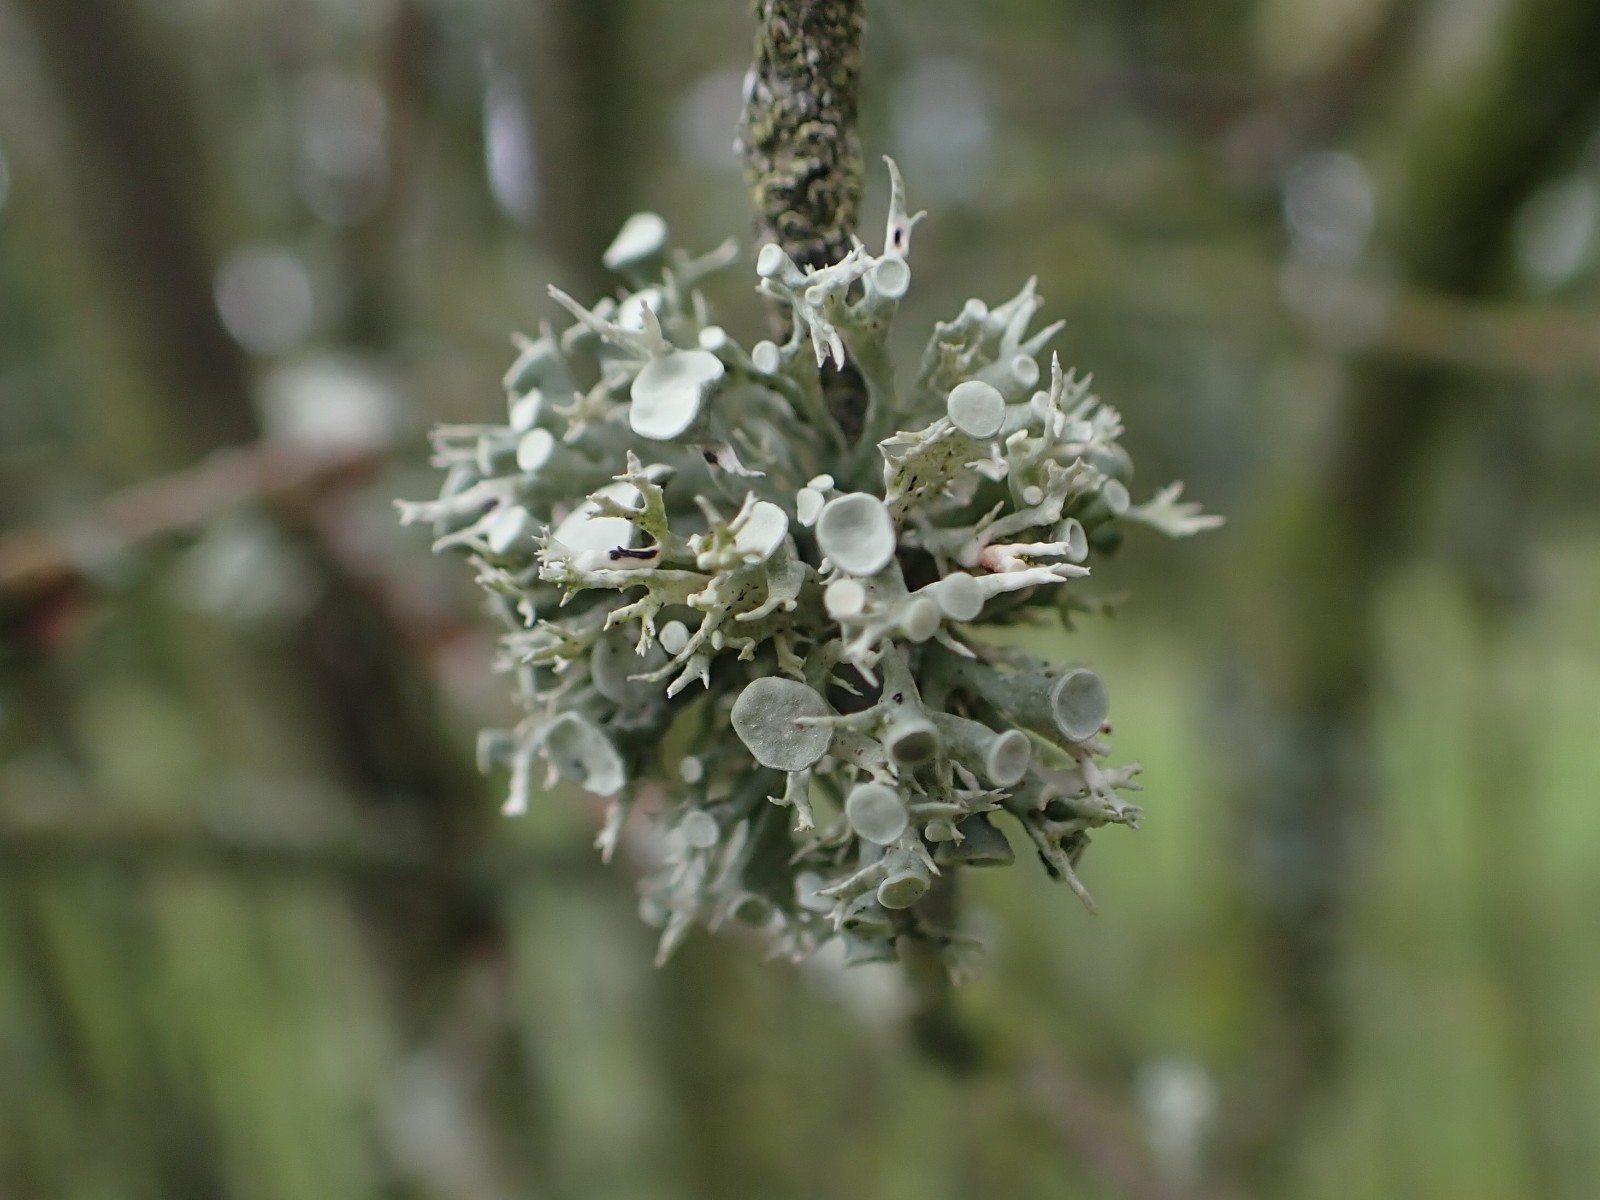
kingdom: Fungi
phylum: Ascomycota
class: Lecanoromycetes
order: Lecanorales
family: Ramalinaceae
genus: Ramalina
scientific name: Ramalina fastigiata
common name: tue-grenlav
